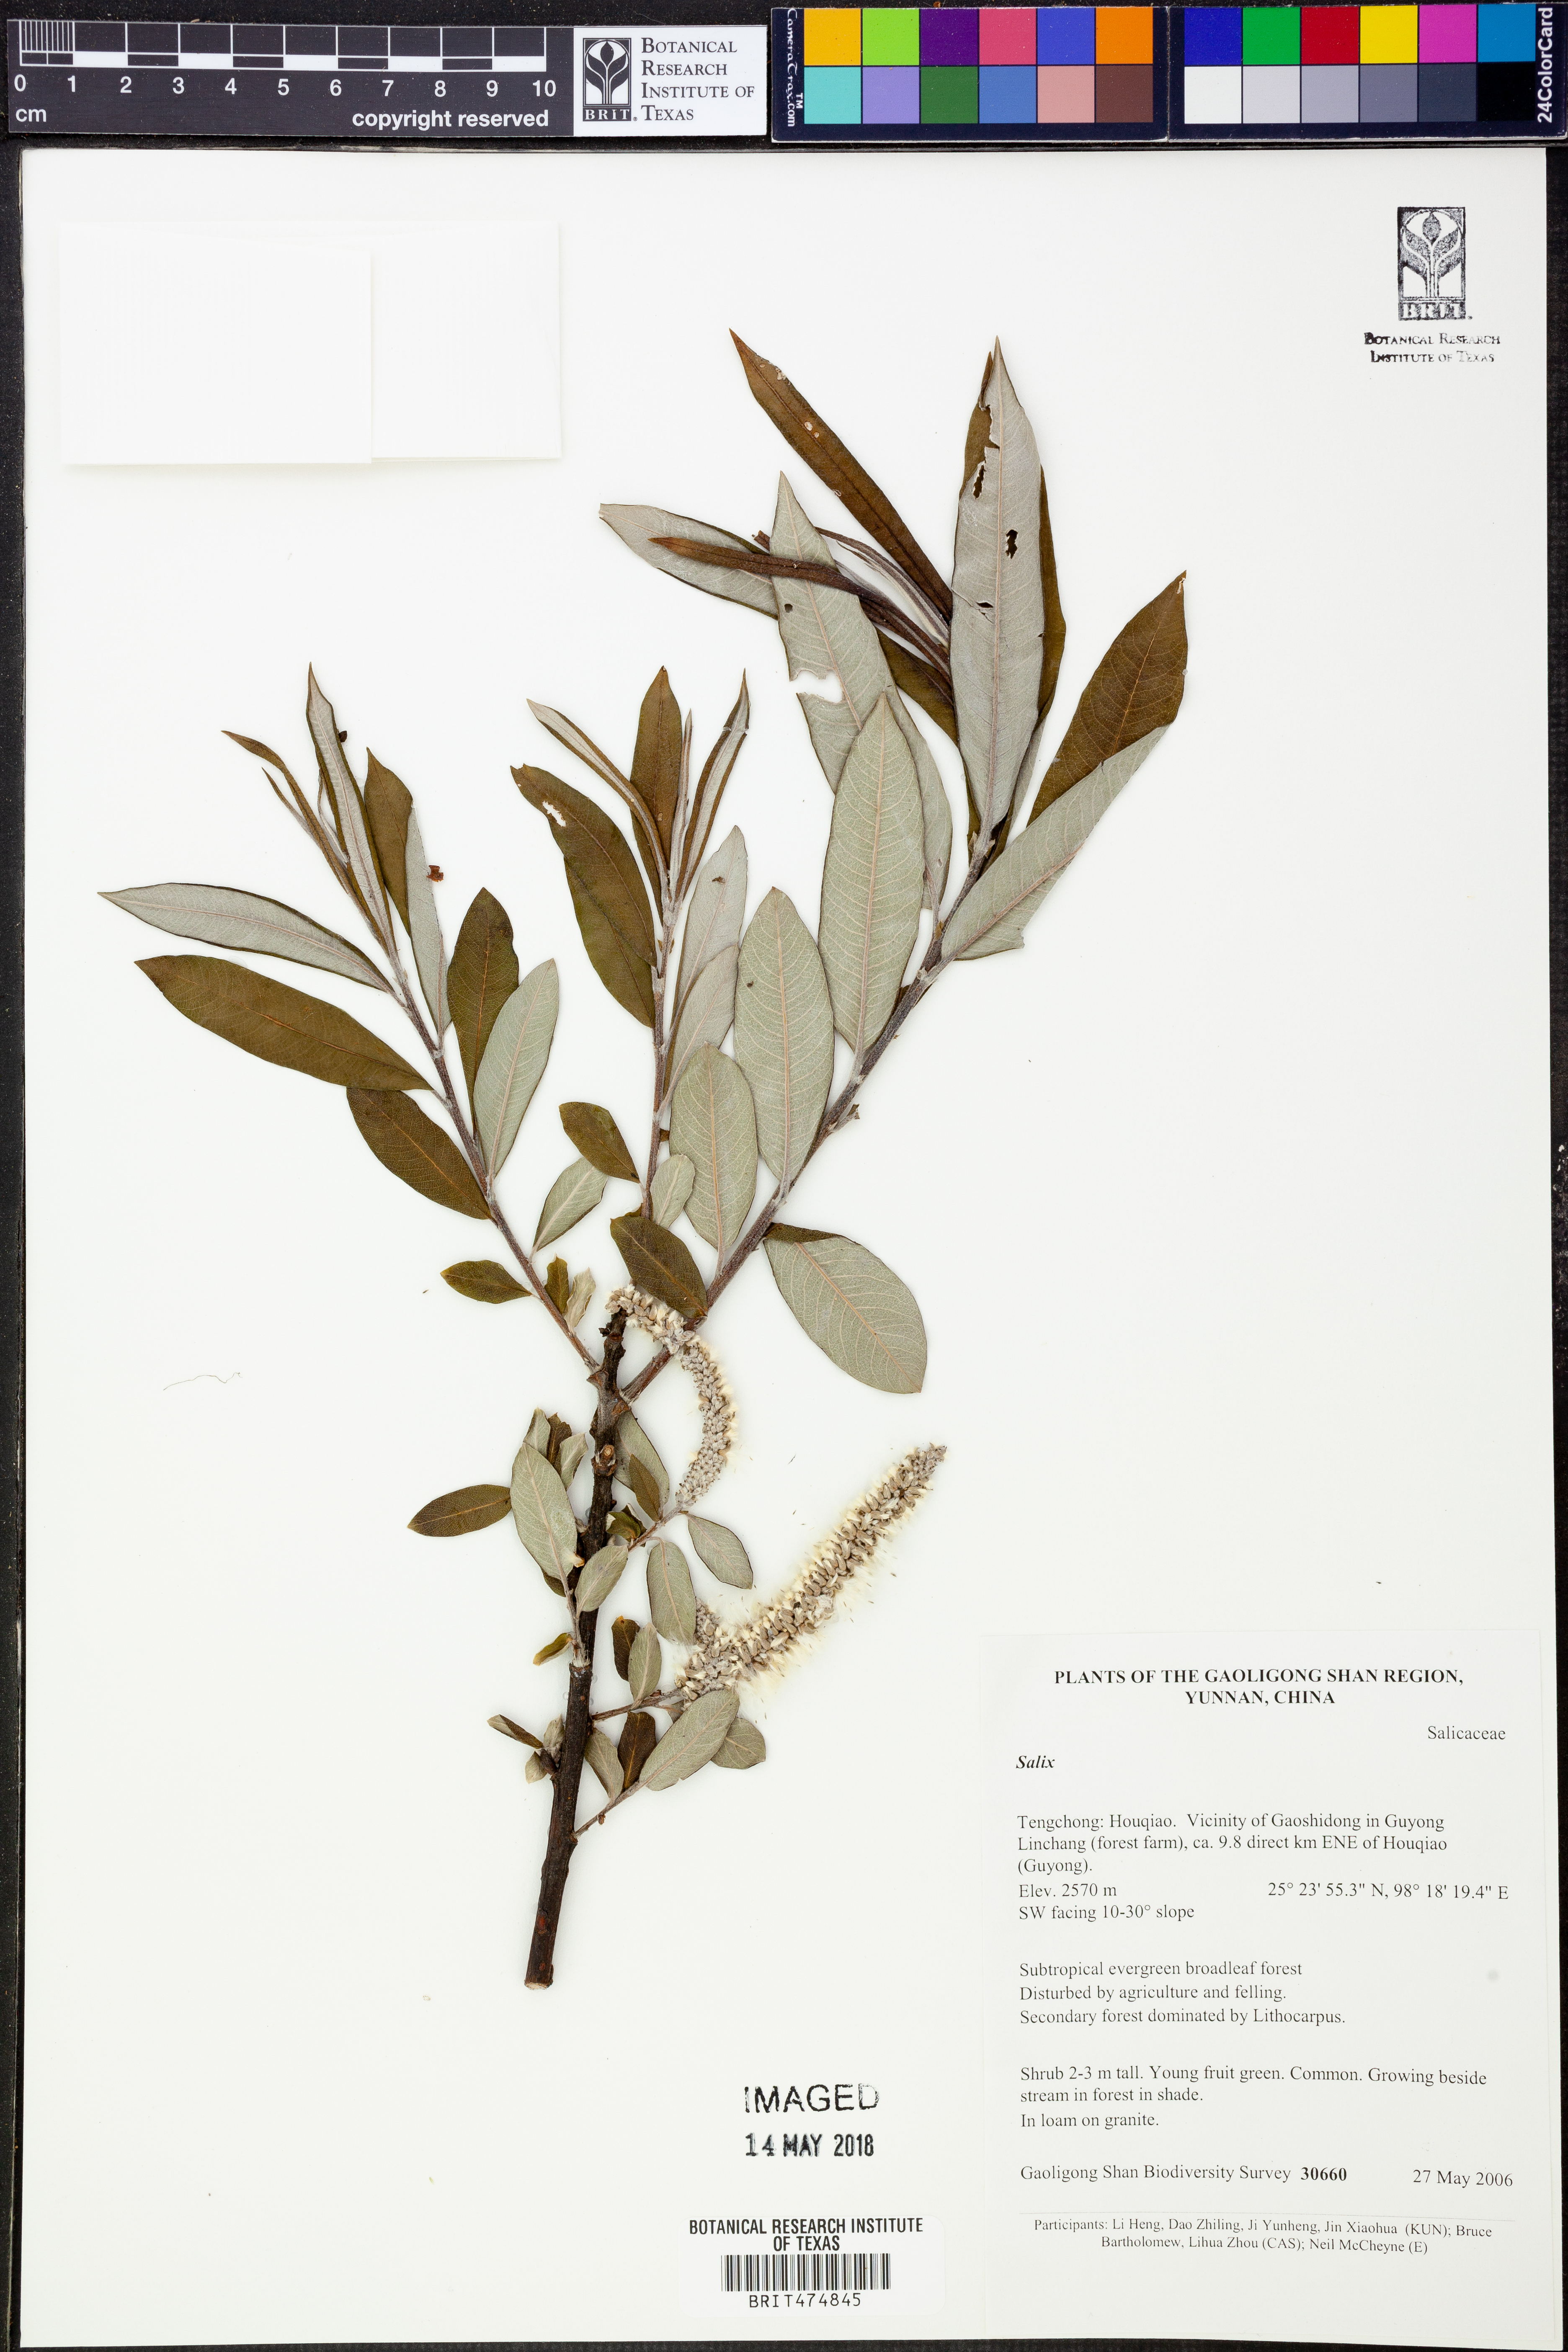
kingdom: Plantae
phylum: Tracheophyta
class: Magnoliopsida
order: Malpighiales
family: Salicaceae
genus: Salix
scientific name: Salix
